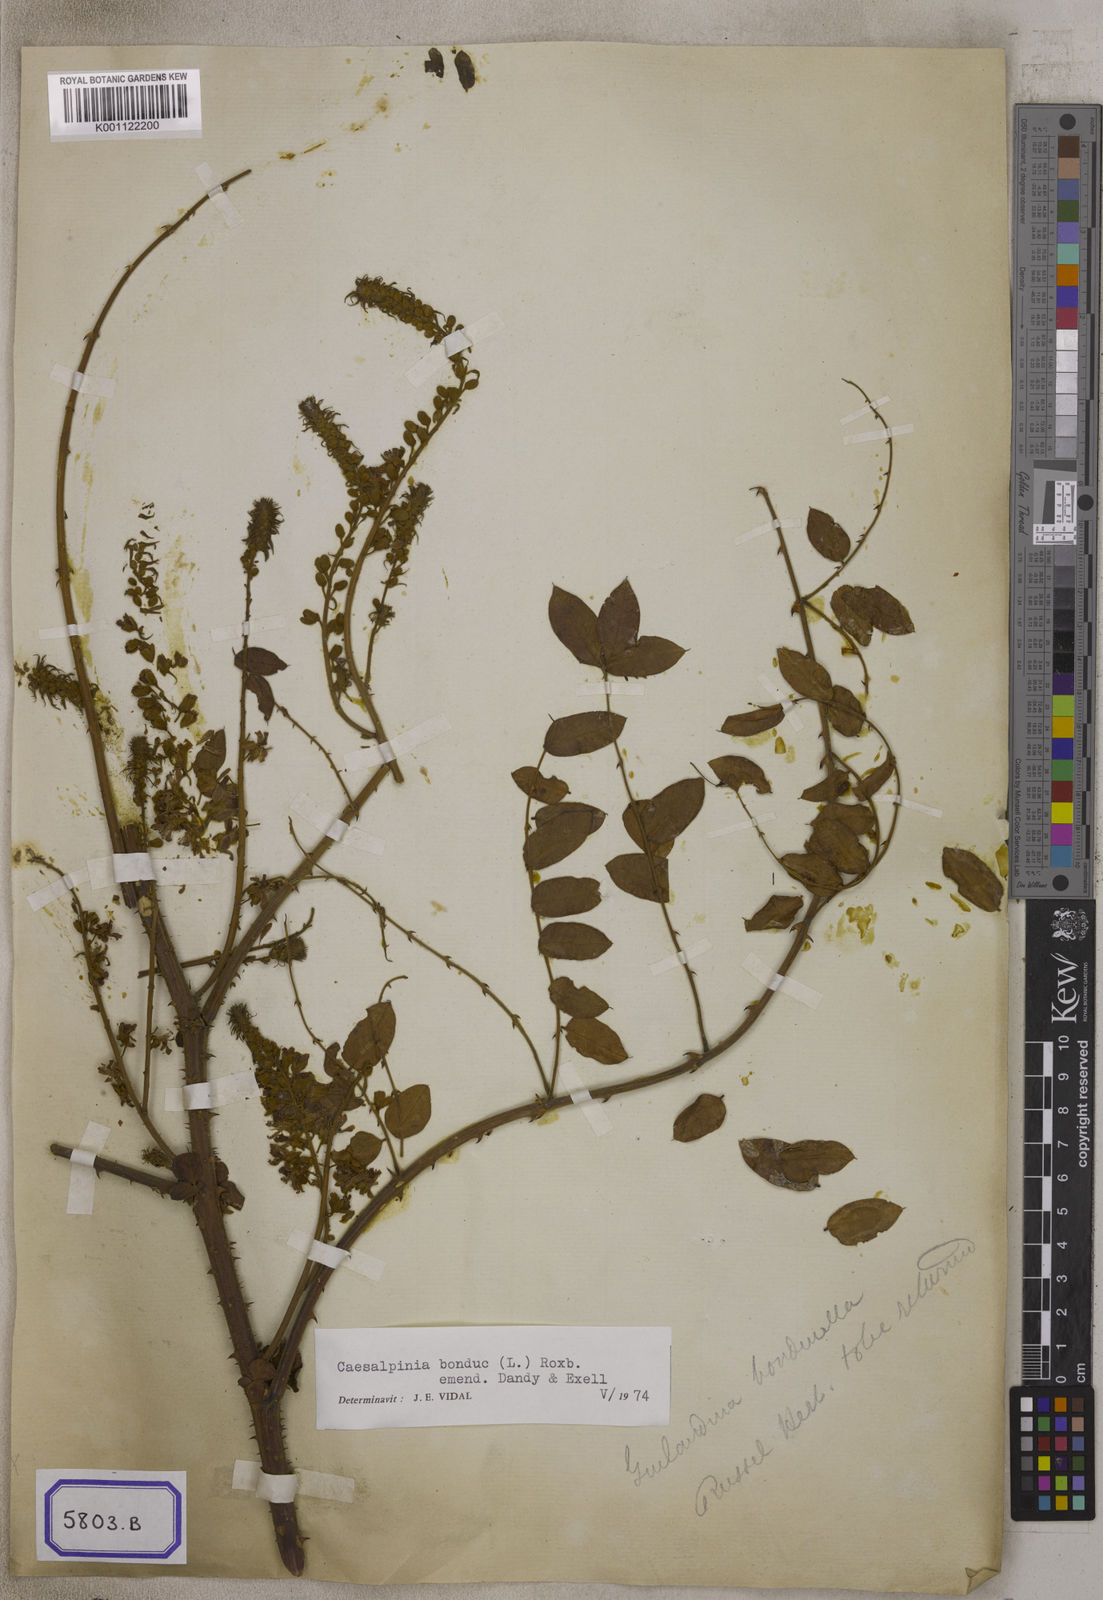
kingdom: Plantae
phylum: Tracheophyta
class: Magnoliopsida
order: Fabales
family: Fabaceae
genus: Guilandina
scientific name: Guilandina bonduc
